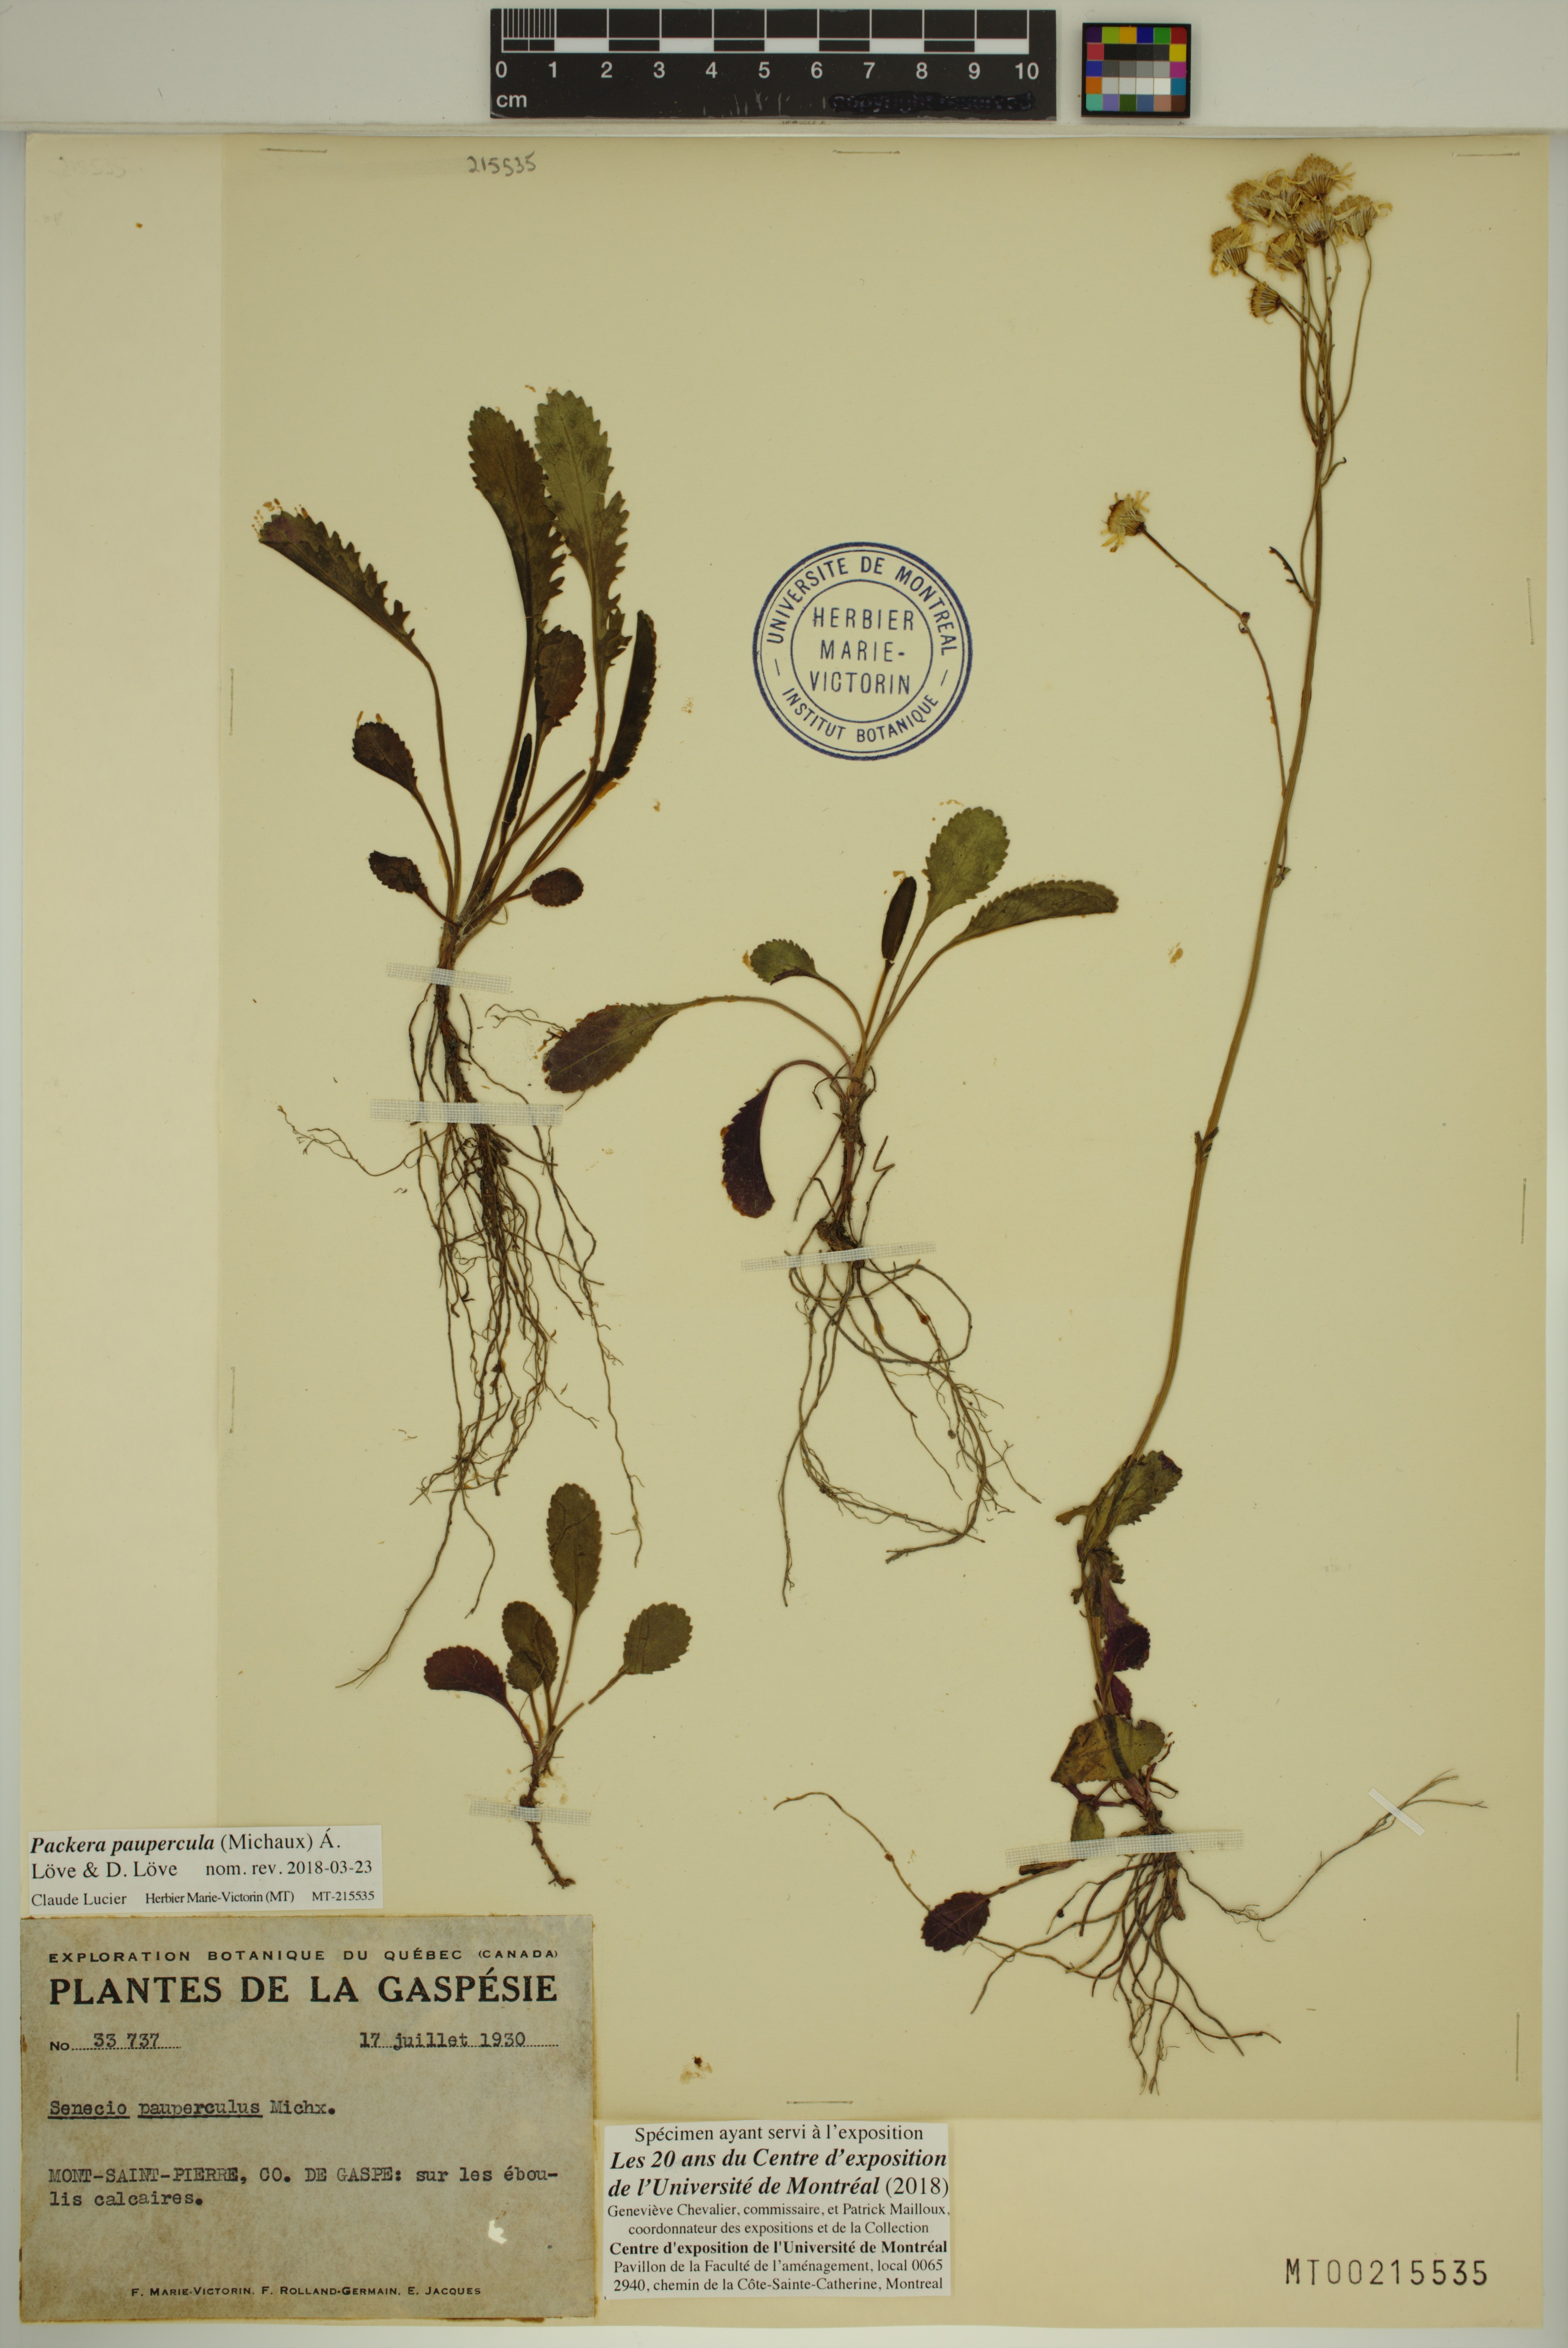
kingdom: Plantae
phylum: Tracheophyta
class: Magnoliopsida
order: Asterales
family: Asteraceae
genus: Packera
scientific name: Packera paupercula
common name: Balsam groundsel
